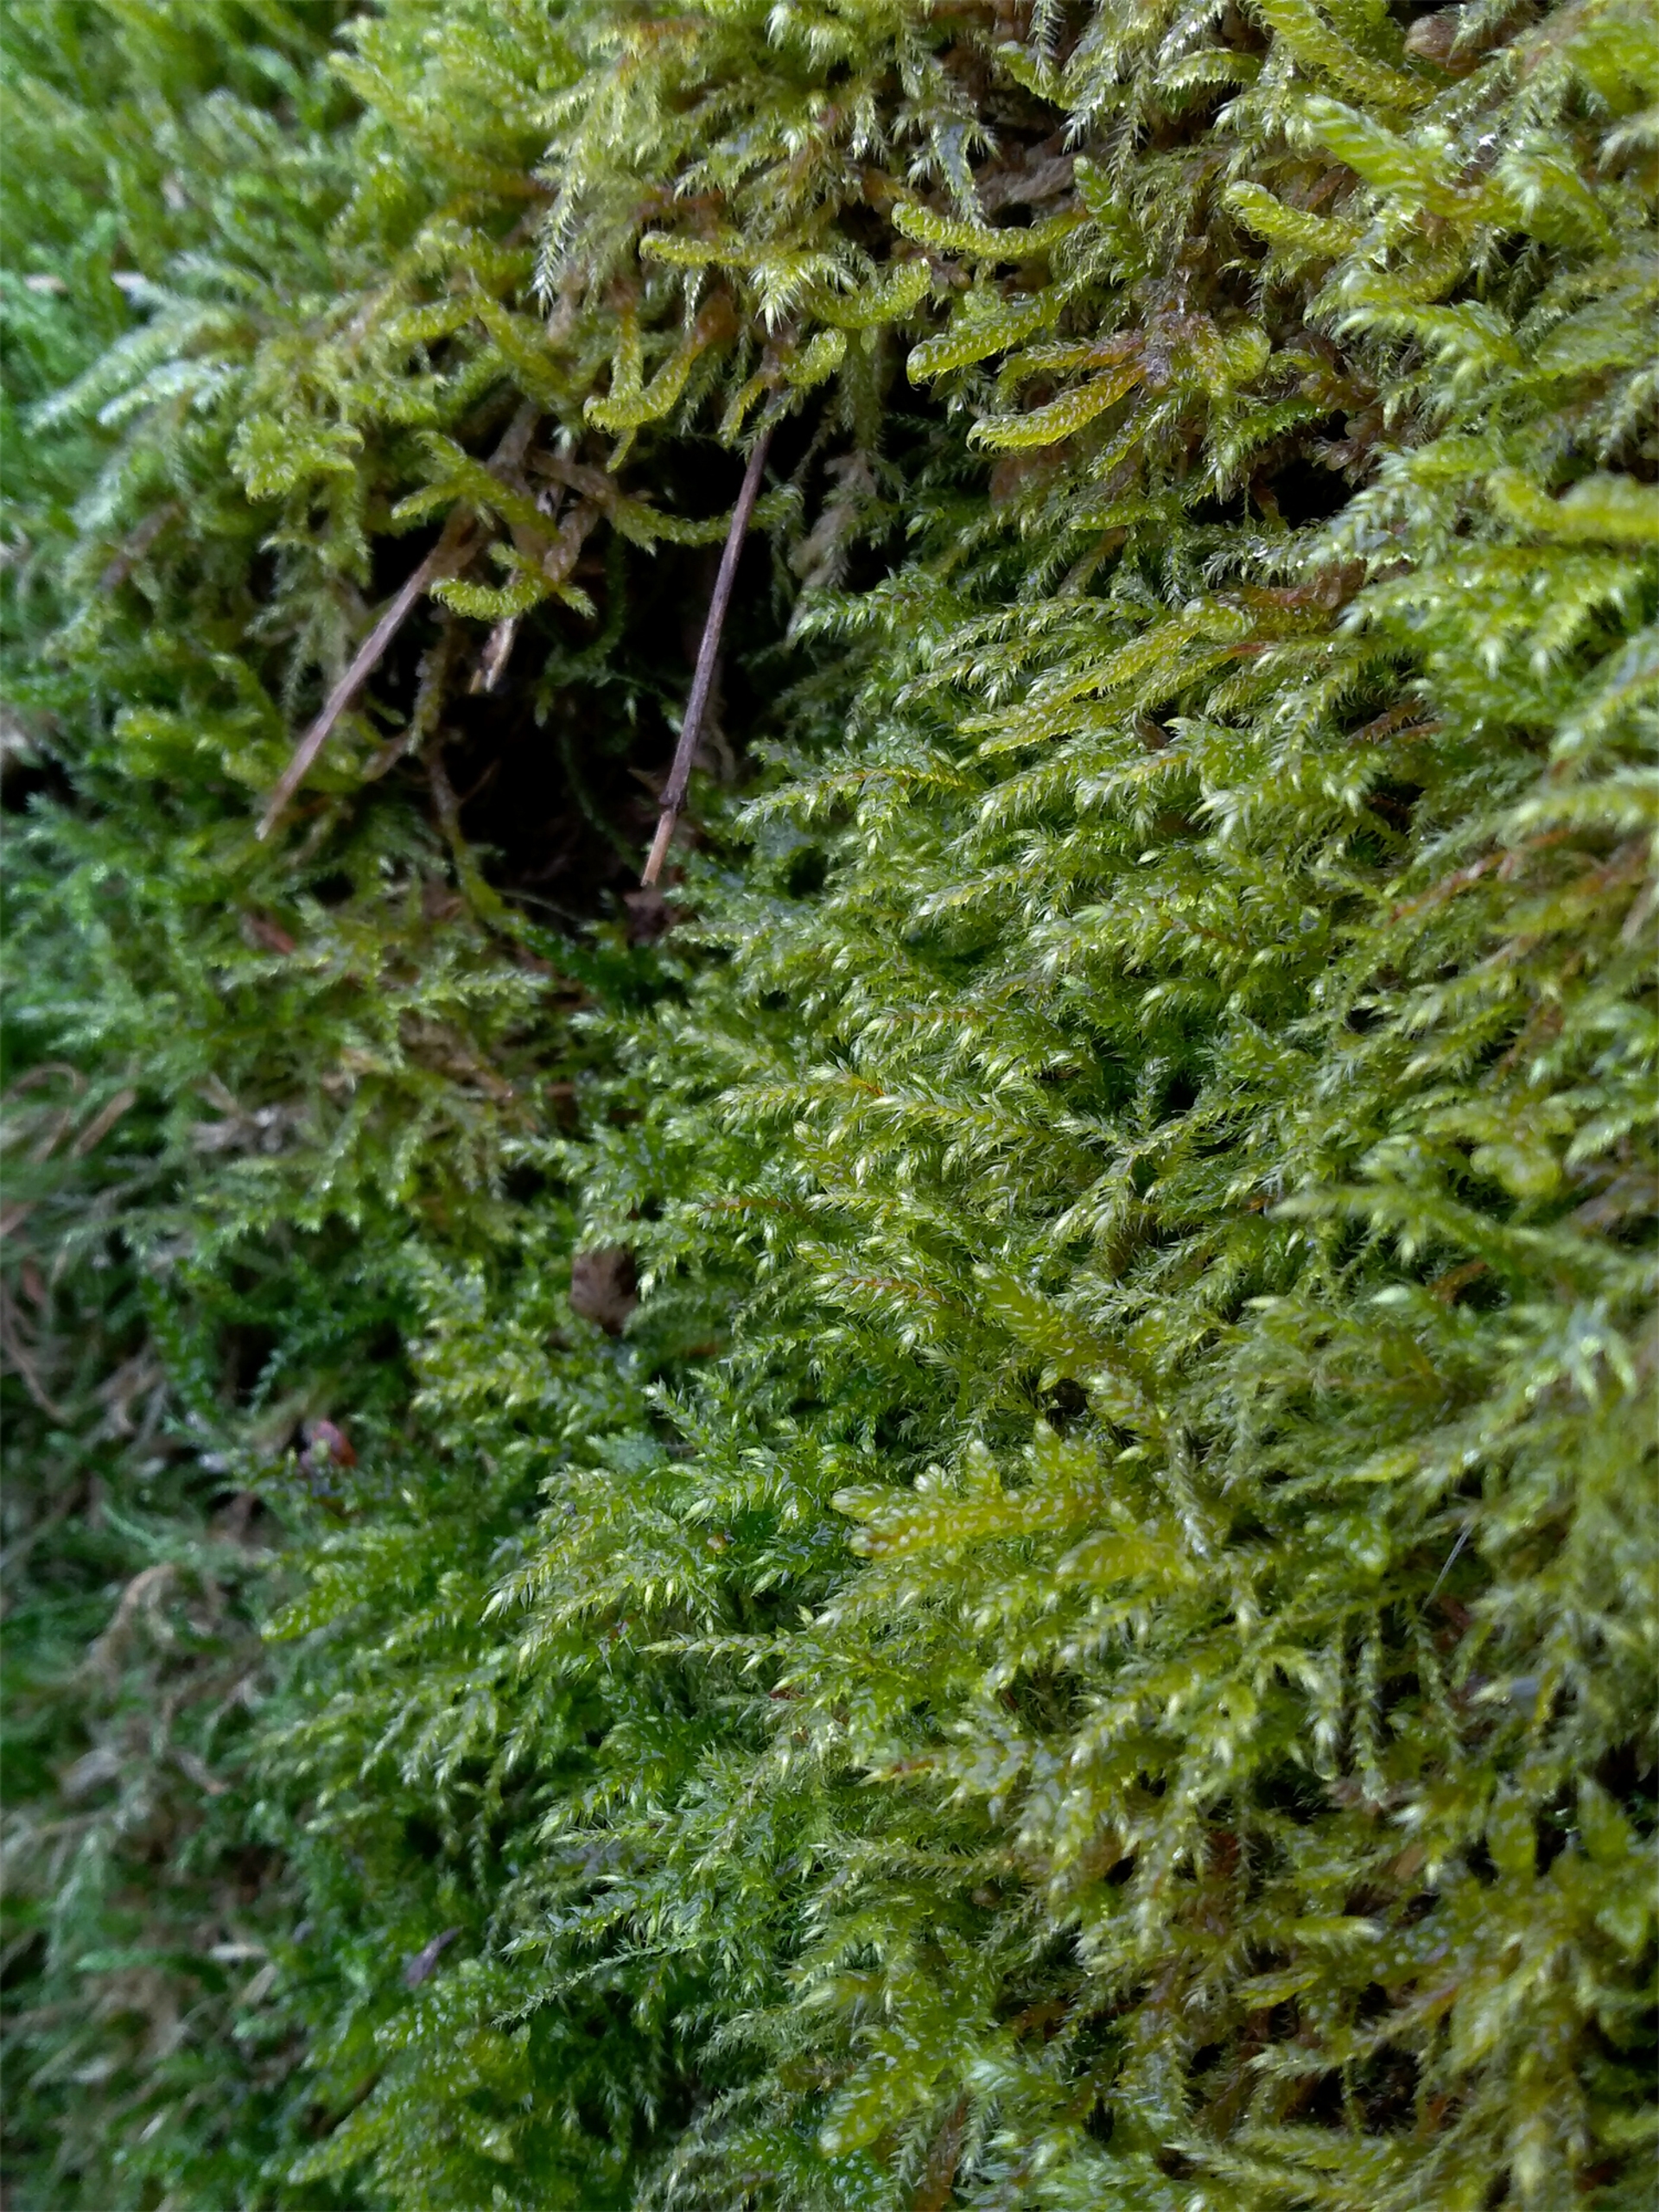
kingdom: Plantae
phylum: Bryophyta
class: Bryopsida
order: Hypnales
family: Lembophyllaceae
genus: Pseudisothecium
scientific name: Pseudisothecium myosuroides
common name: Slank stammemos
